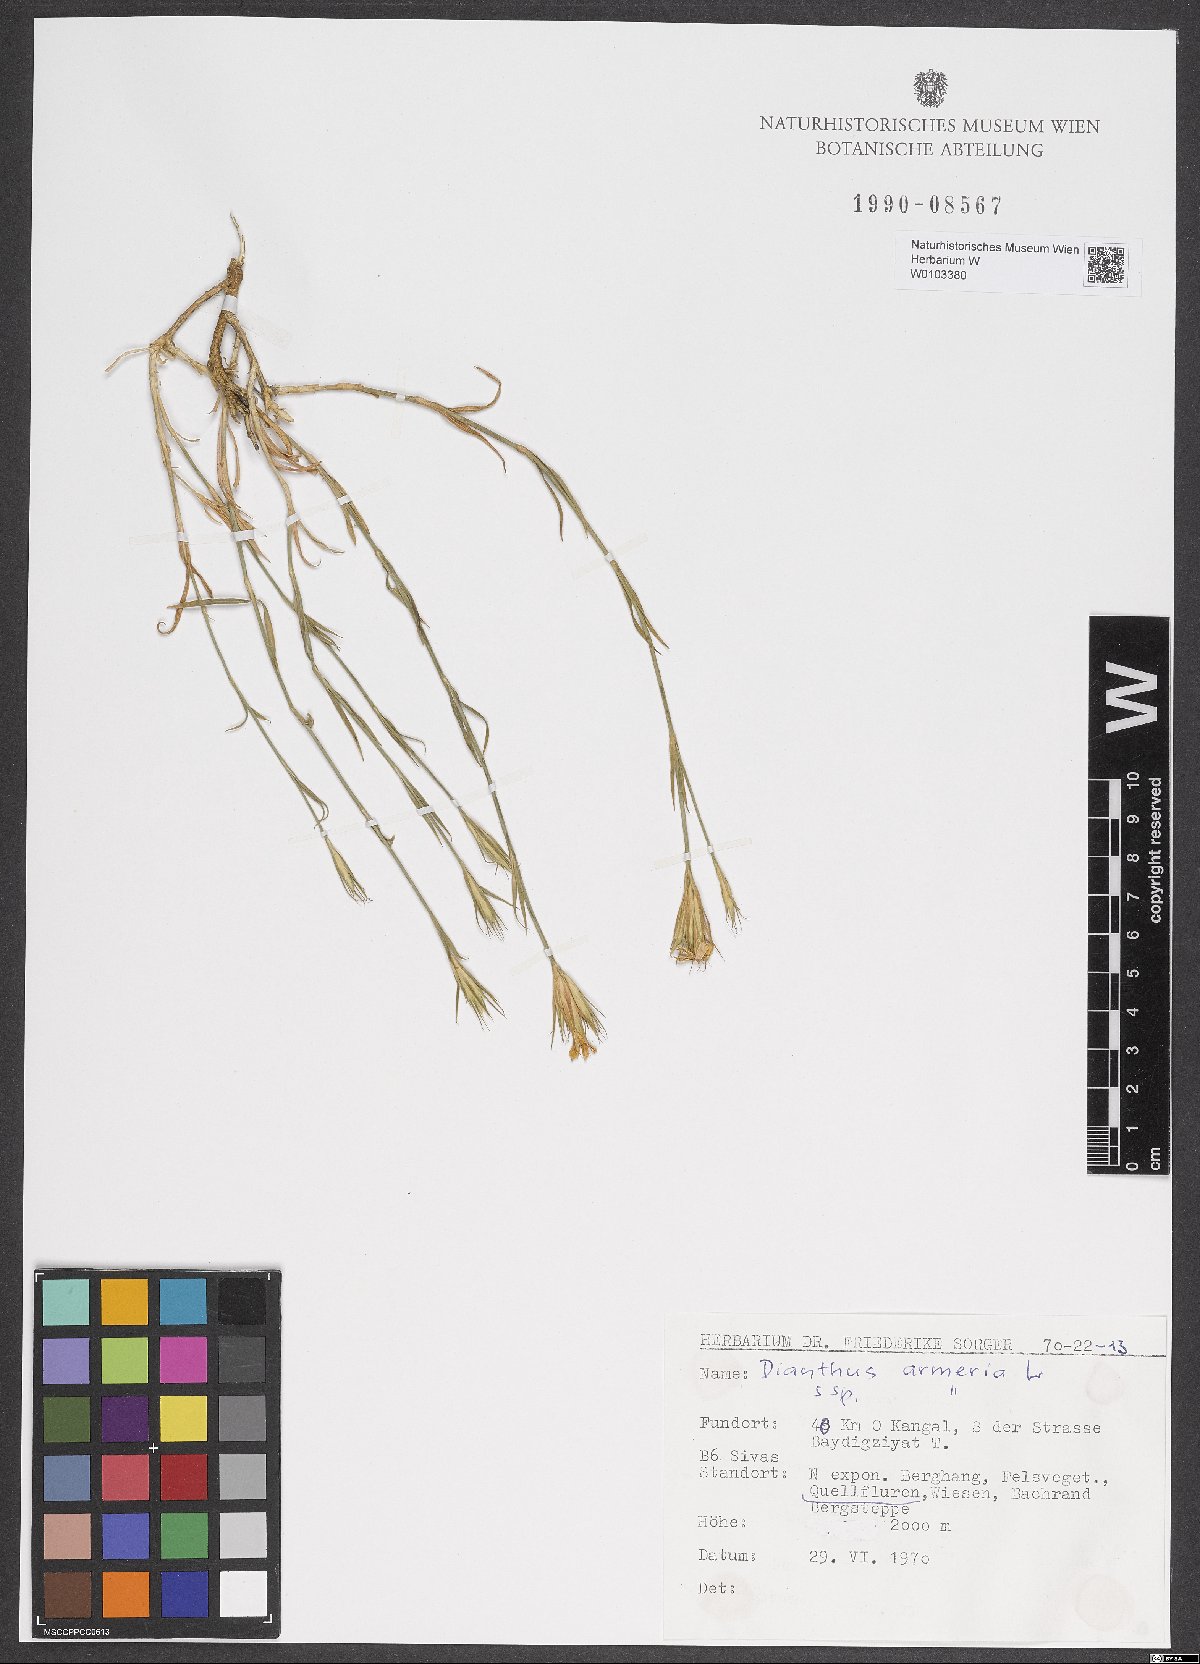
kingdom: Plantae
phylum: Tracheophyta
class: Magnoliopsida
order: Caryophyllales
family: Caryophyllaceae
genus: Dianthus
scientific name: Dianthus armeria
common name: Deptford pink
